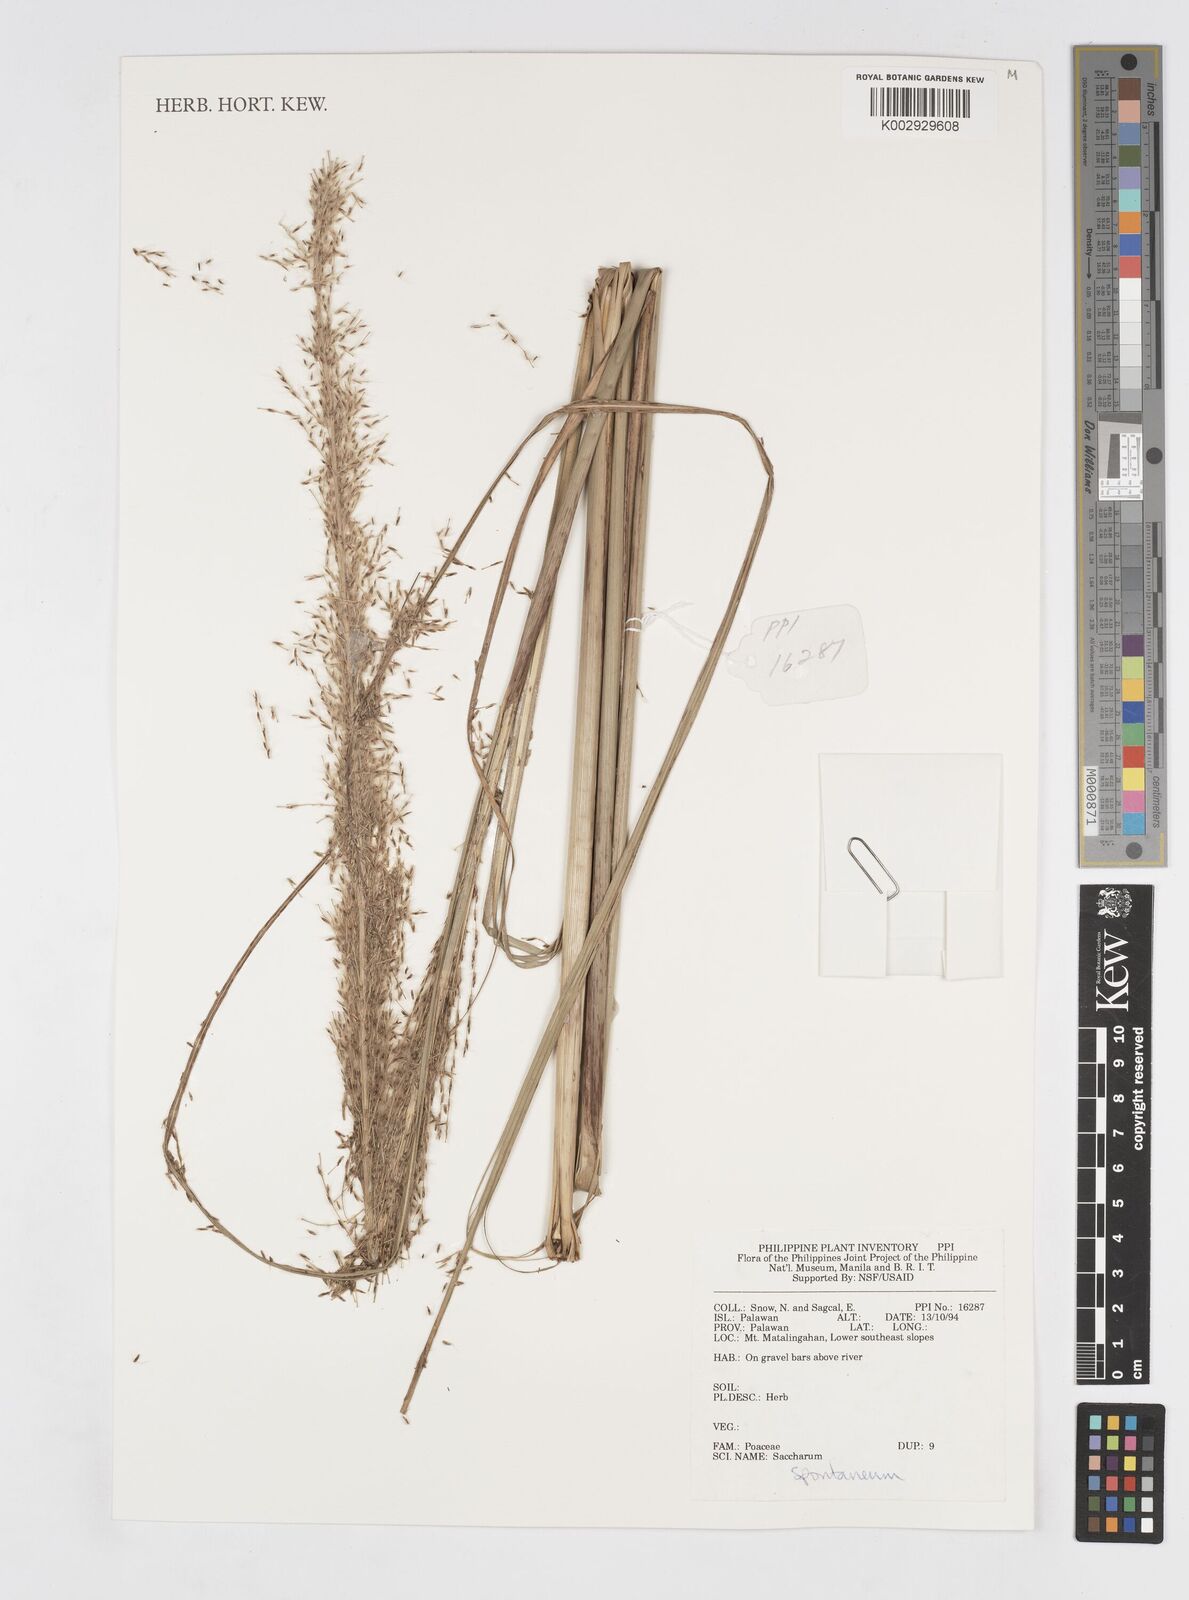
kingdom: Plantae
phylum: Tracheophyta
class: Liliopsida
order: Poales
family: Poaceae
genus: Saccharum
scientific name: Saccharum spontaneum
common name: Wild sugarcane
